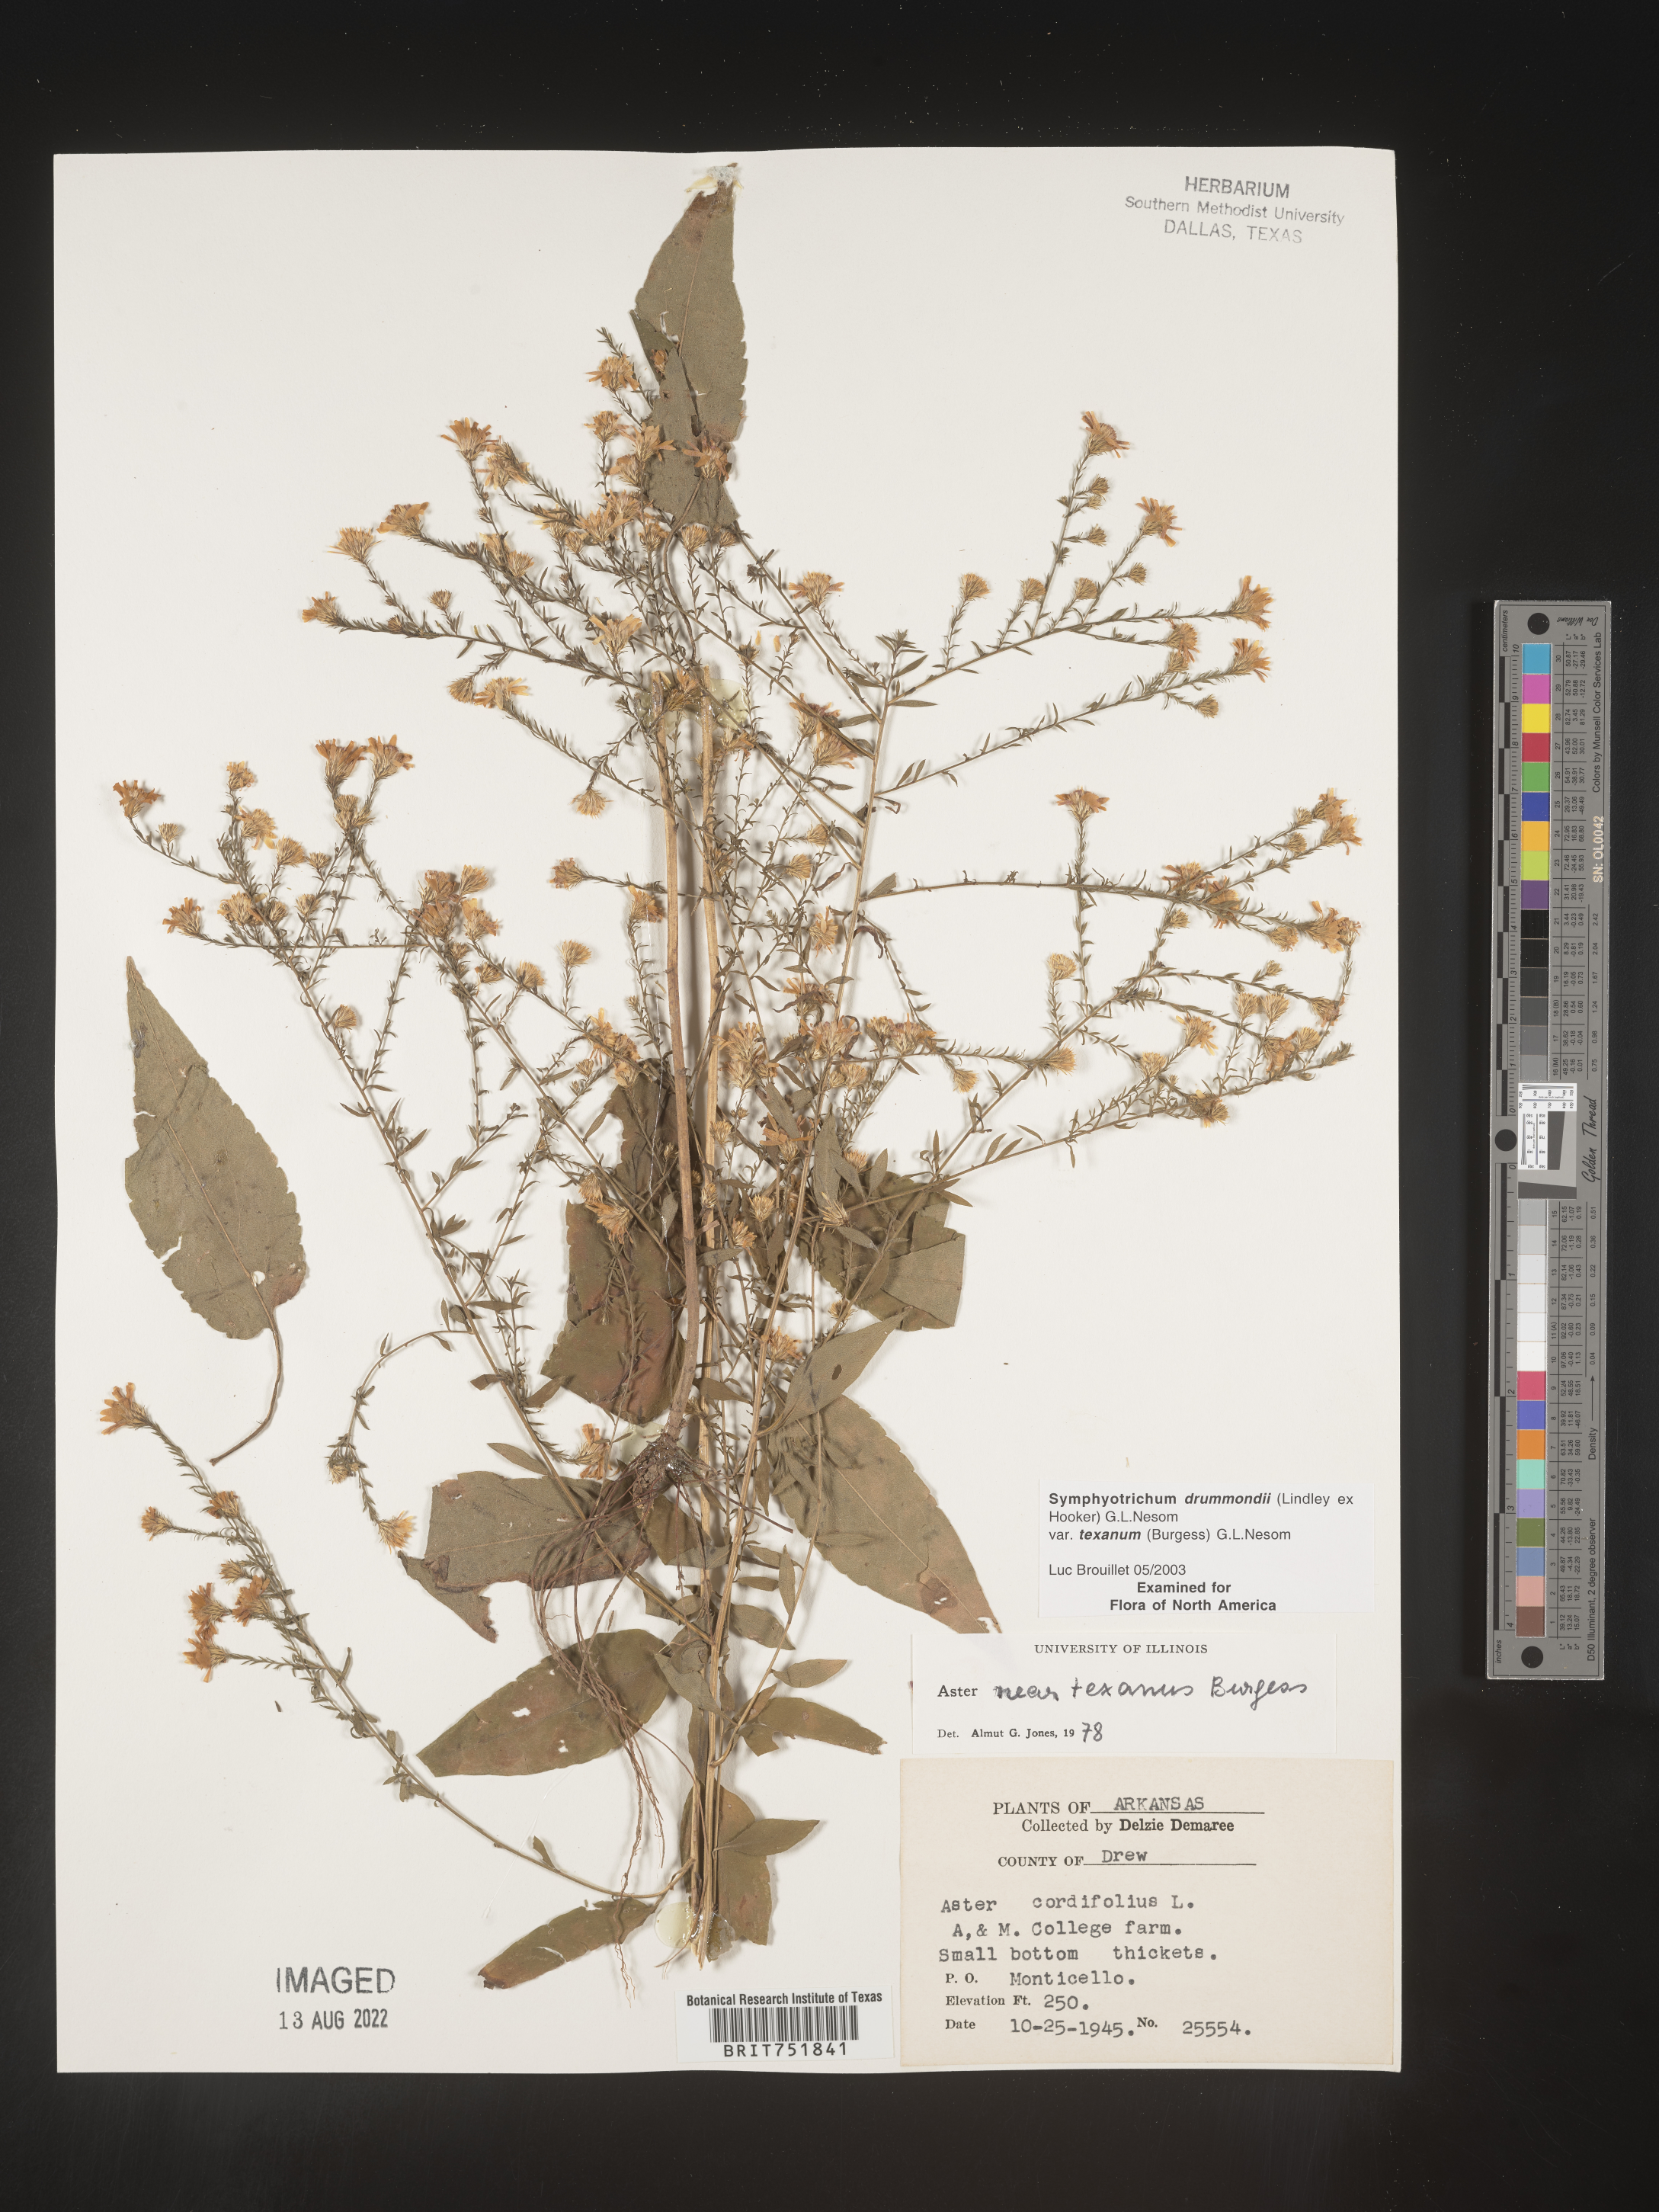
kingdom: Plantae
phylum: Tracheophyta
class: Magnoliopsida
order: Asterales
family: Asteraceae
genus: Symphyotrichum
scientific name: Symphyotrichum drummondii
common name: Drummond's aster
